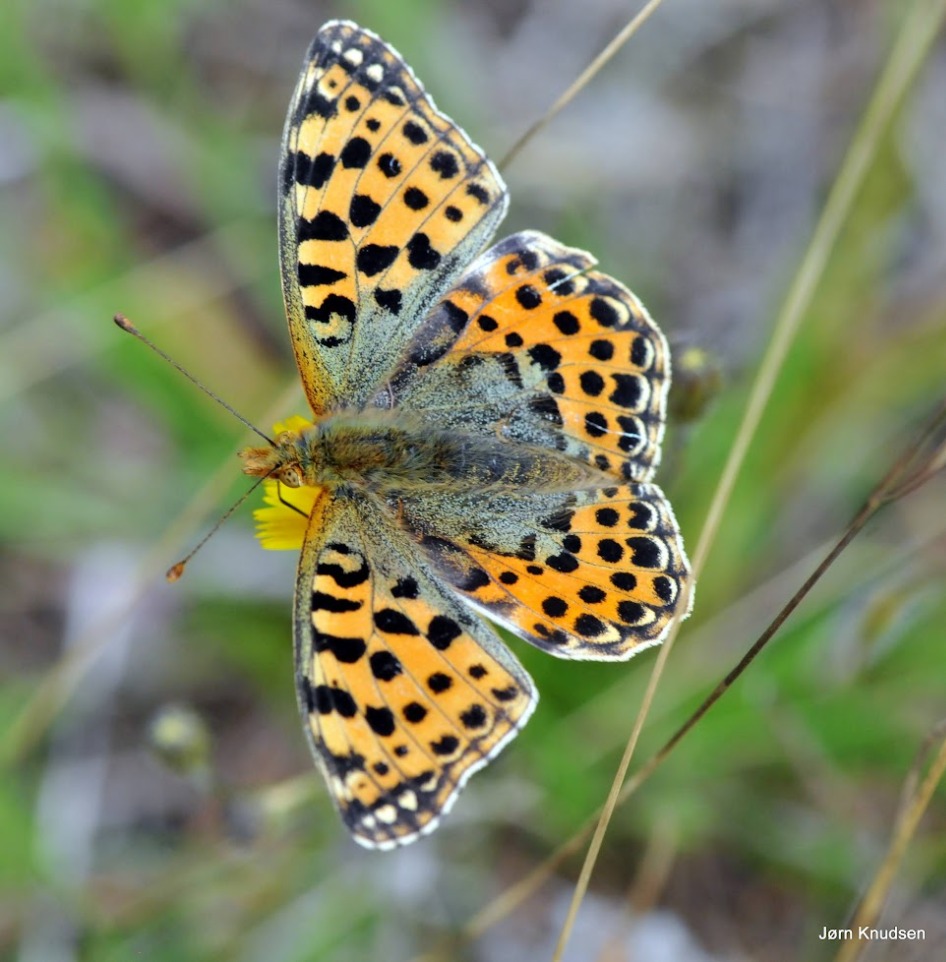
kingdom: Animalia
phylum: Arthropoda
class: Insecta
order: Lepidoptera
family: Nymphalidae
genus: Issoria
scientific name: Issoria lathonia
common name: Storplettet perlemorsommerfugl
